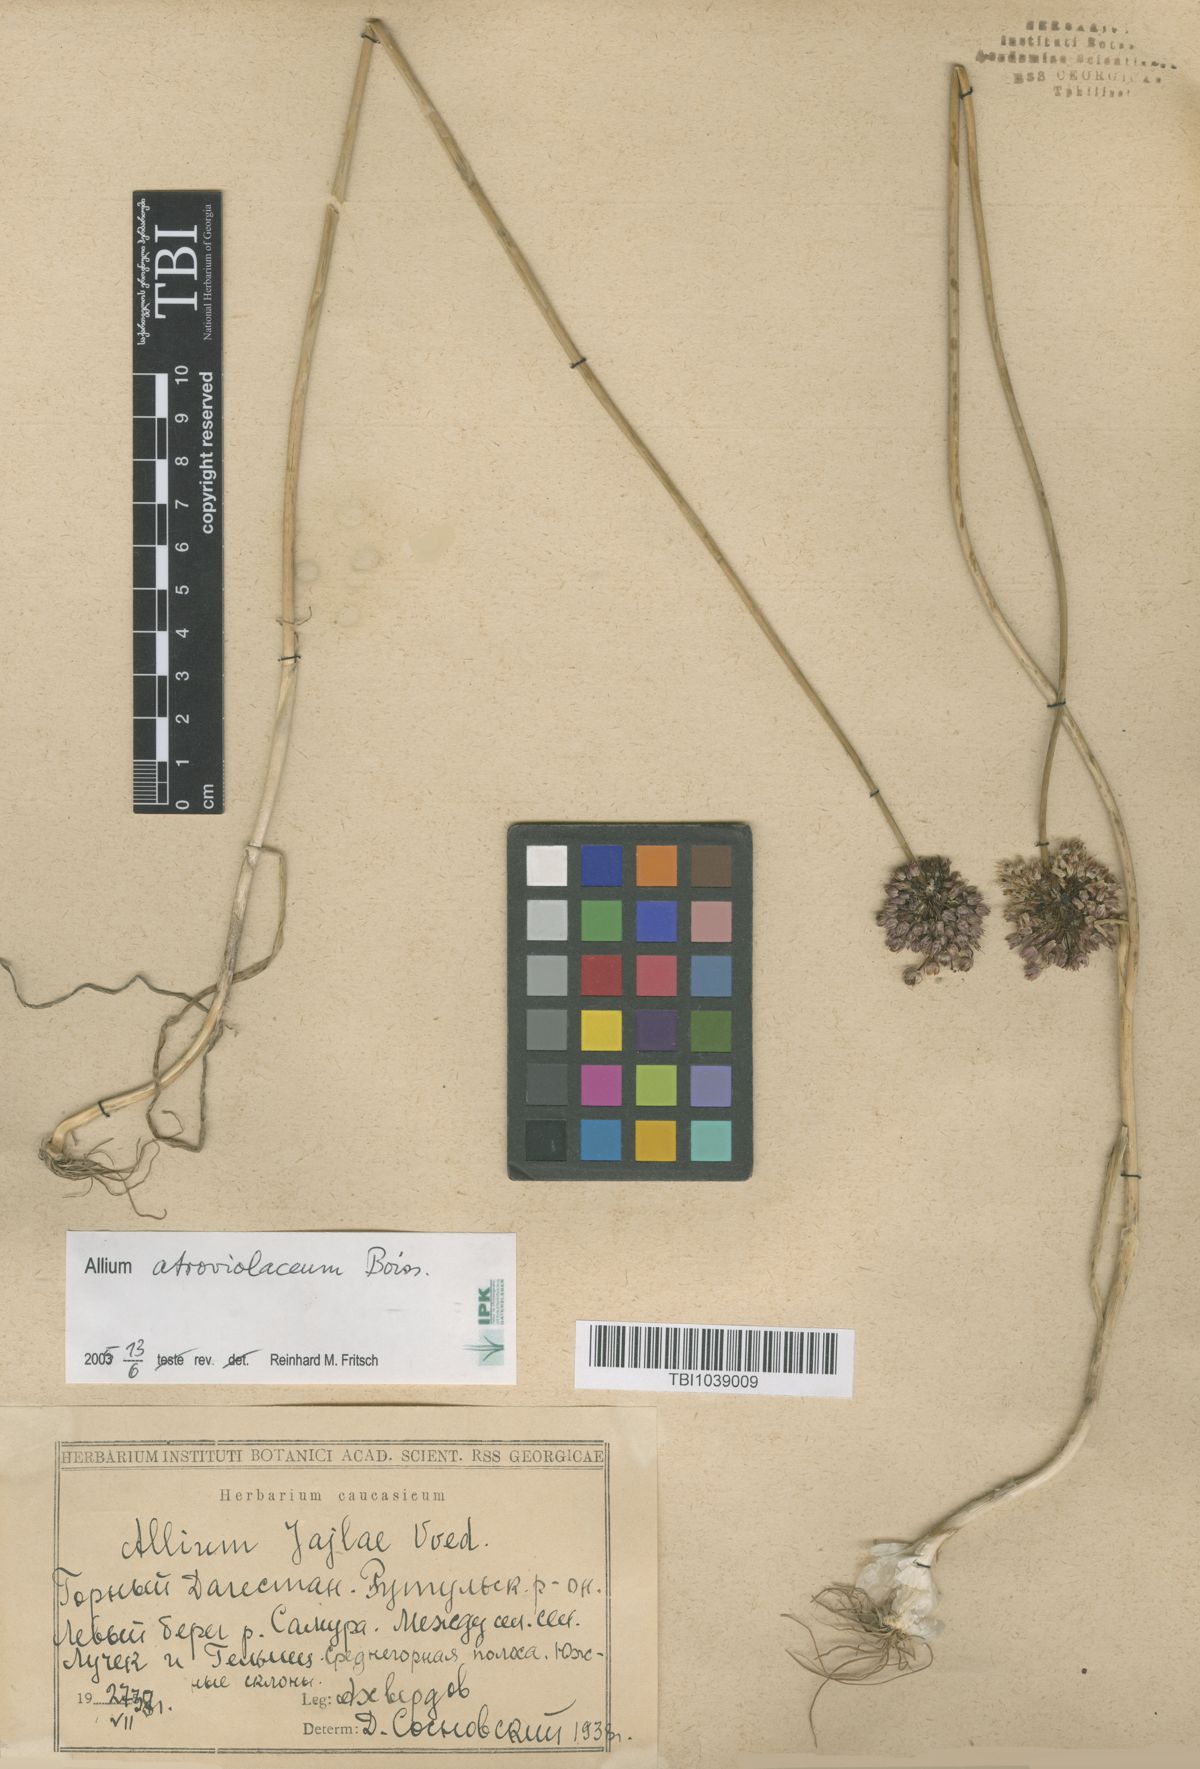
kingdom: Plantae
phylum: Tracheophyta
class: Liliopsida
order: Asparagales
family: Amaryllidaceae
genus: Allium
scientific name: Allium rotundum
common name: Sand leek
